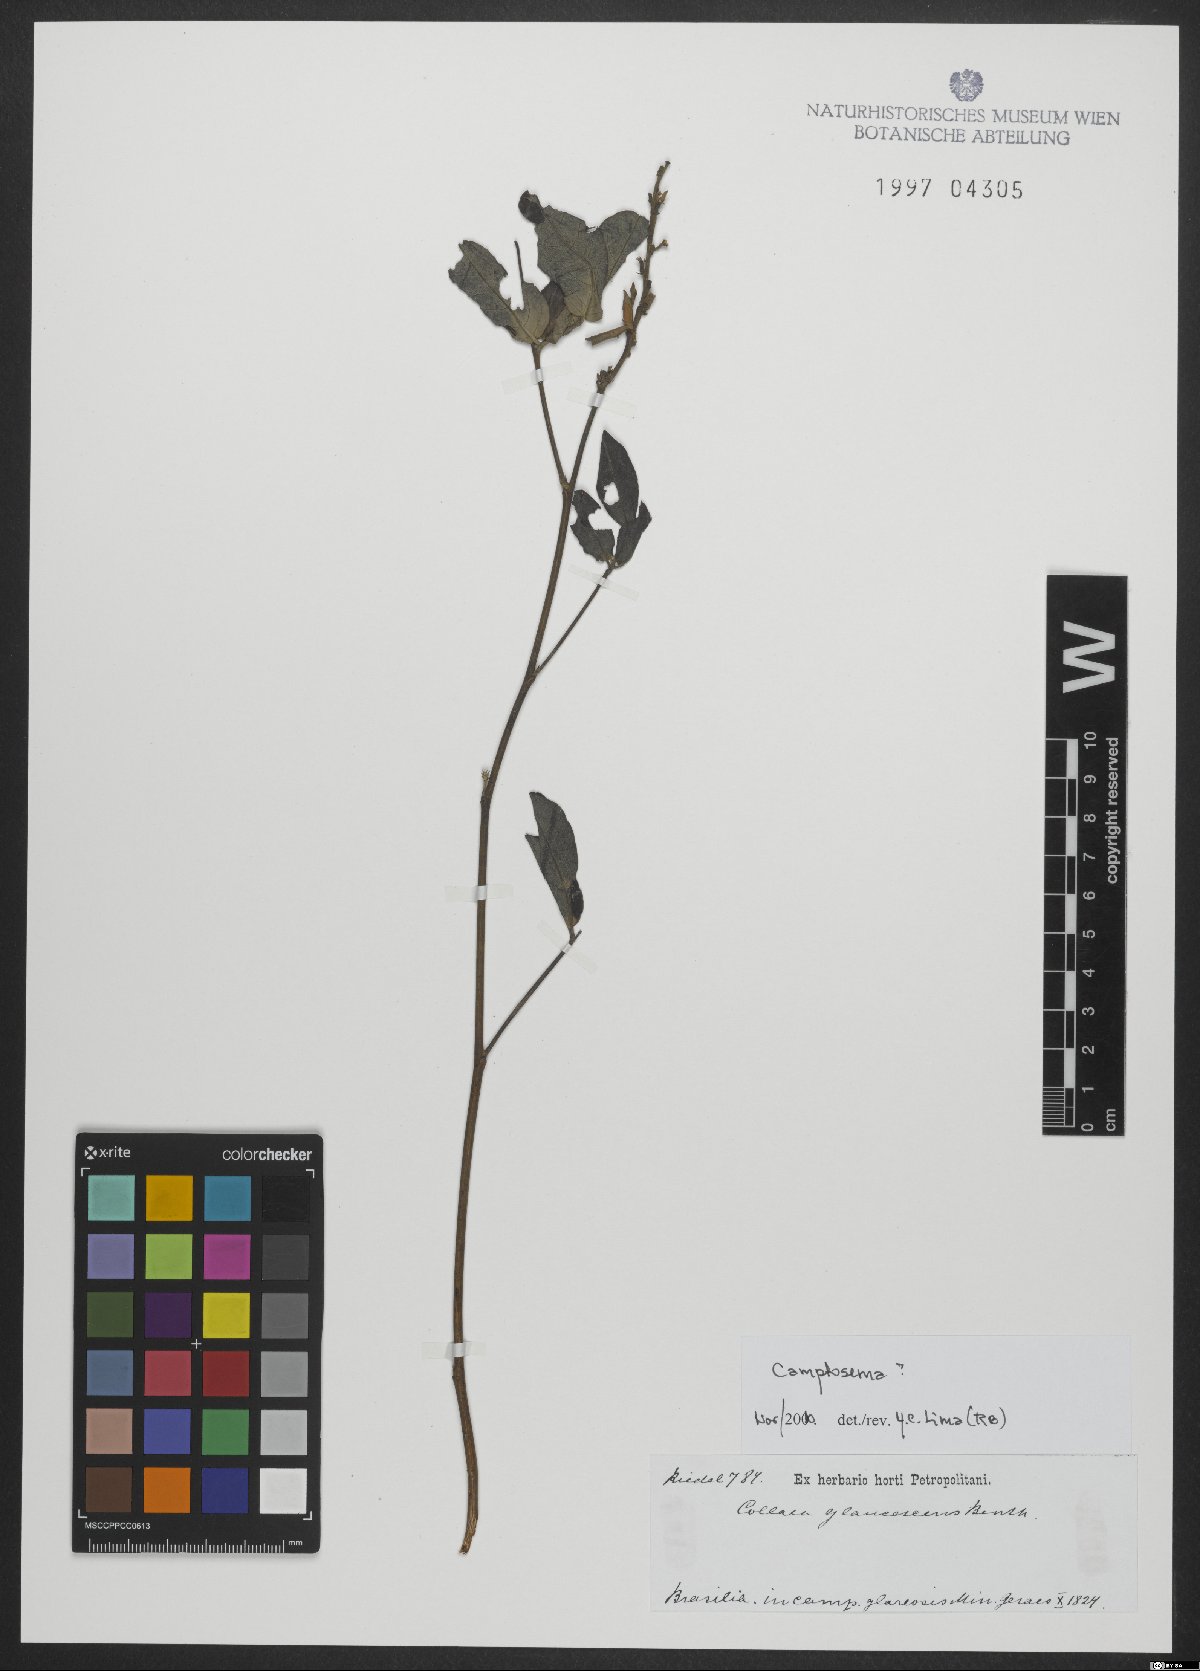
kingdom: Plantae
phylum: Tracheophyta
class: Magnoliopsida
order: Fabales
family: Fabaceae
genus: Camptosema
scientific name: Camptosema
